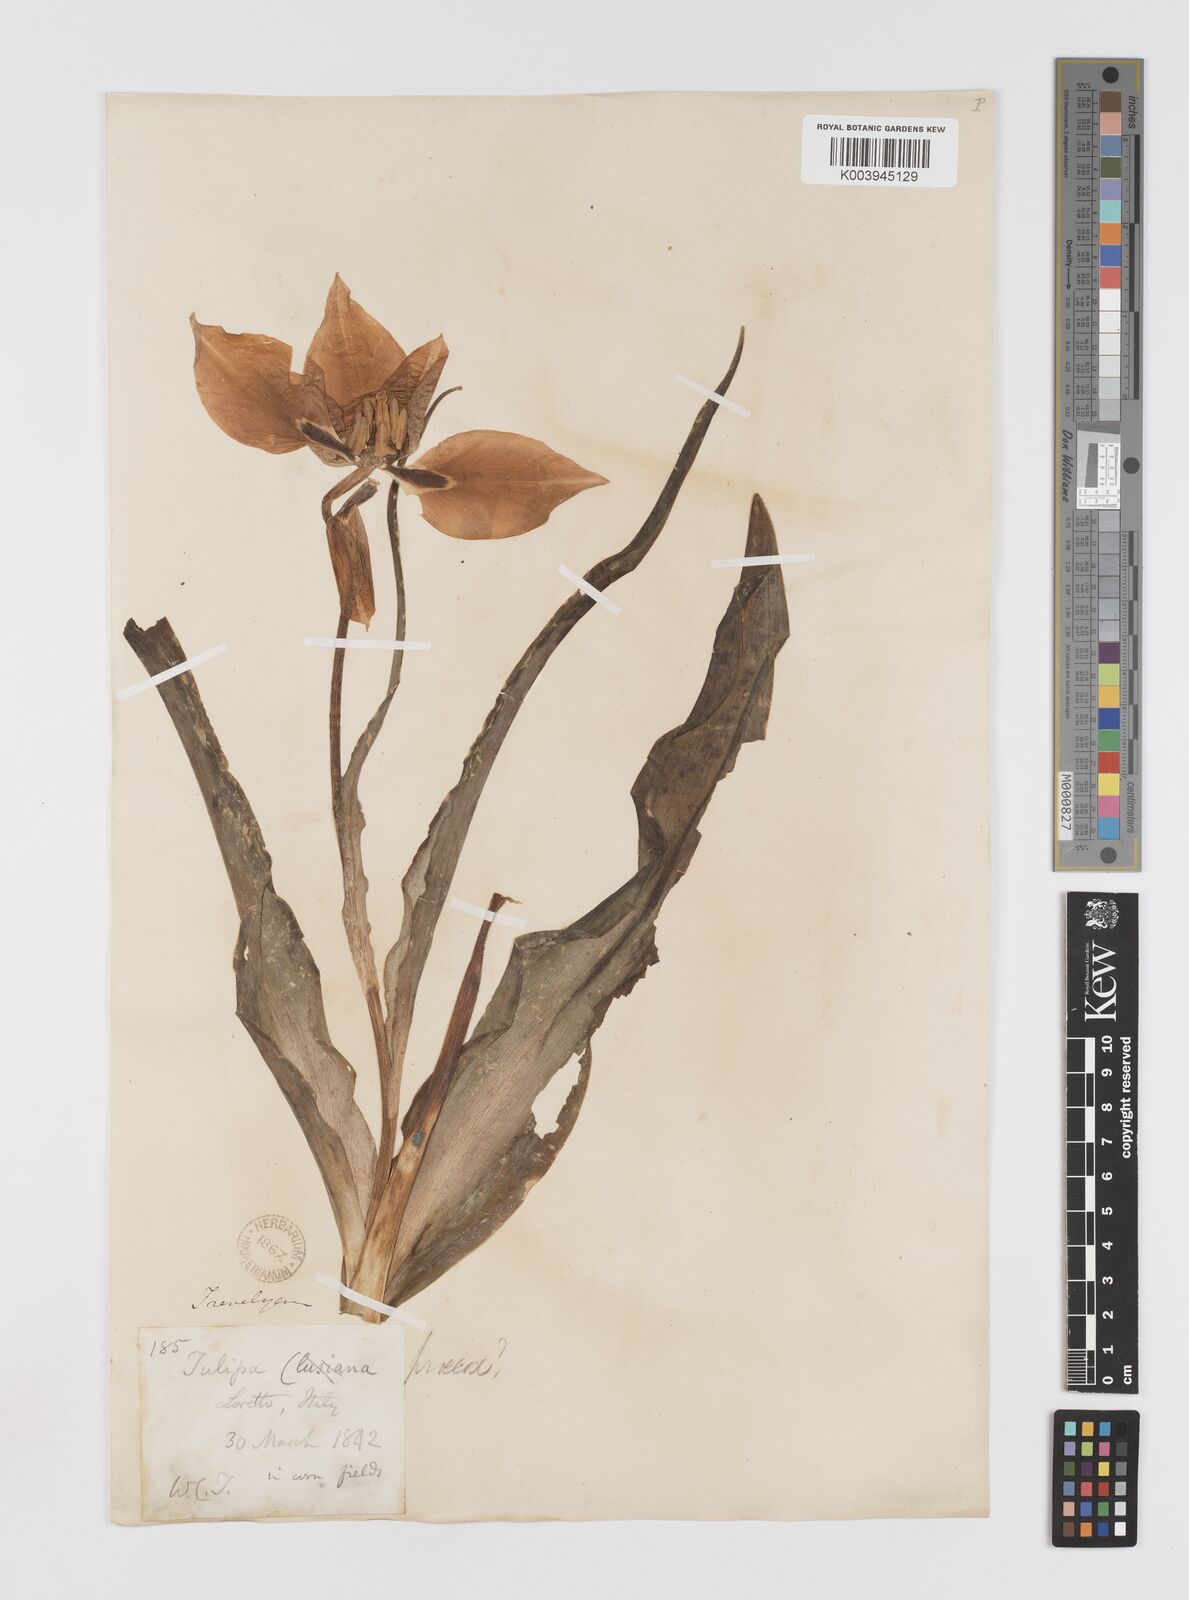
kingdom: Plantae
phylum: Tracheophyta
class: Liliopsida
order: Liliales
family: Liliaceae
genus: Tulipa
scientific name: Tulipa
